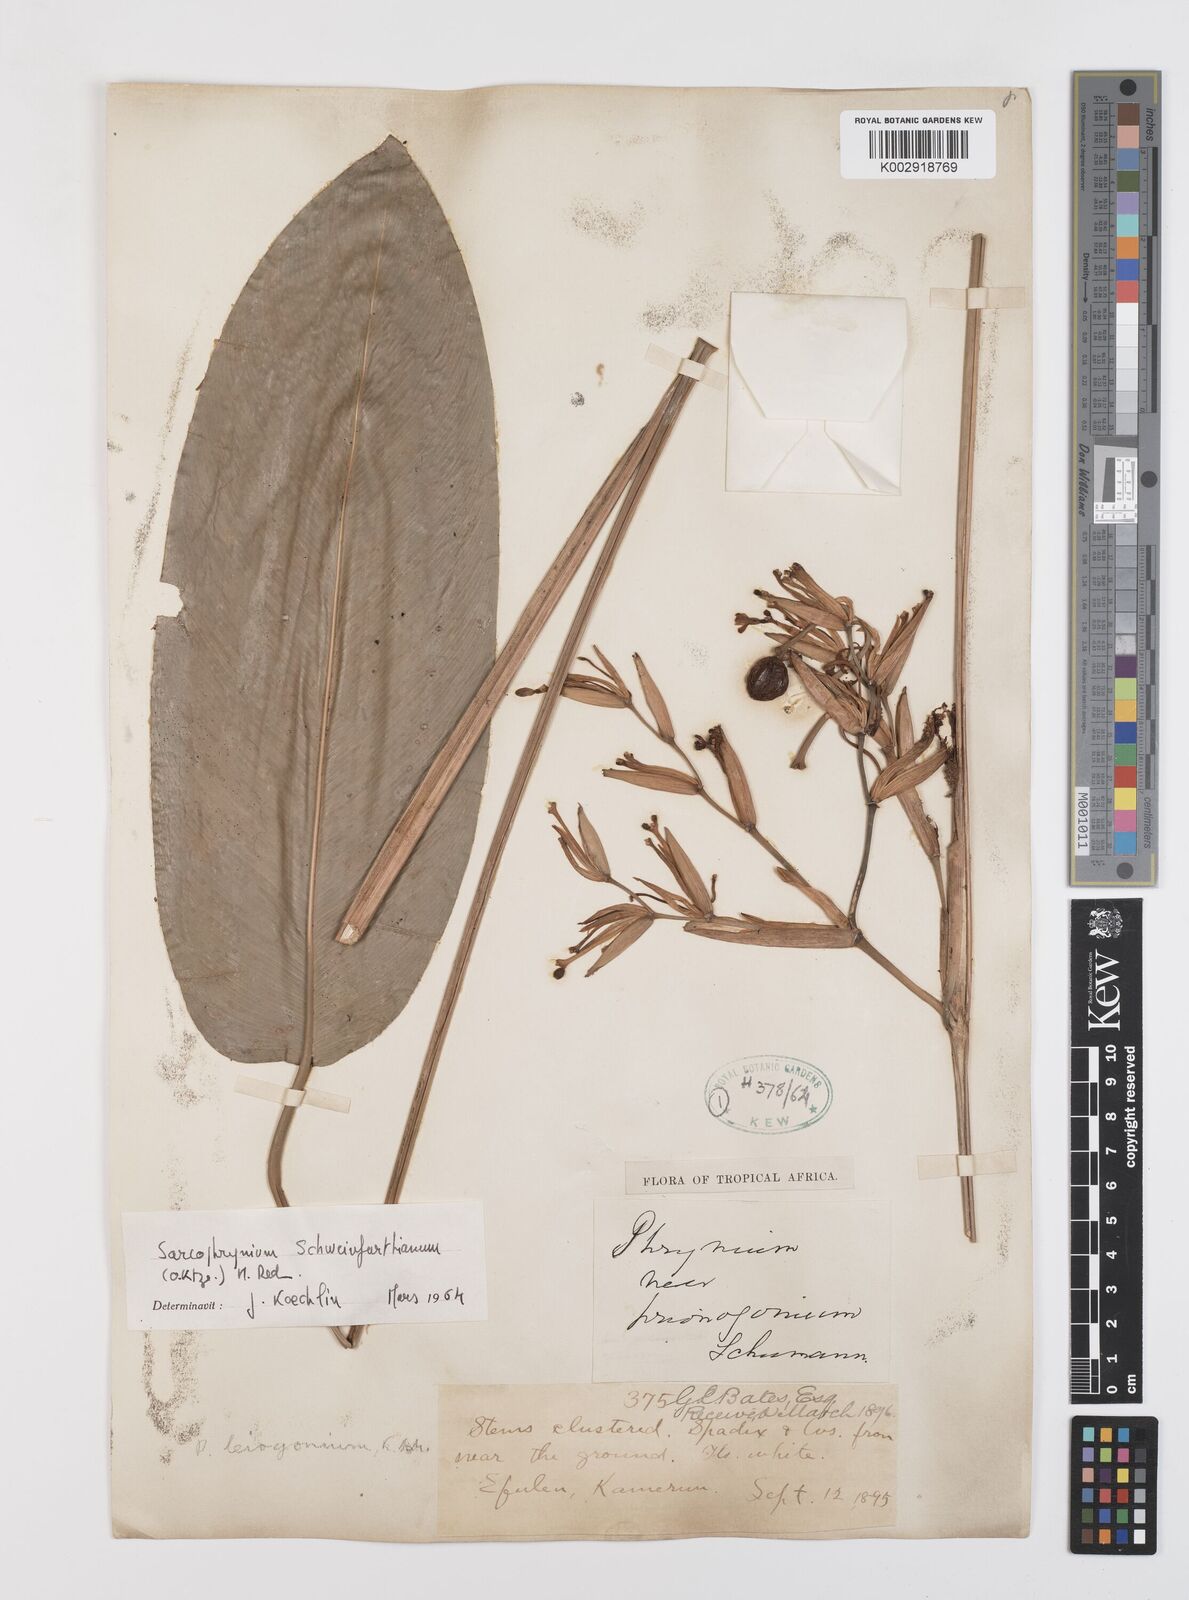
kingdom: Plantae
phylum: Tracheophyta
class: Liliopsida
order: Zingiberales
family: Marantaceae
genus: Sarcophrynium
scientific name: Sarcophrynium schweinfurthianum
